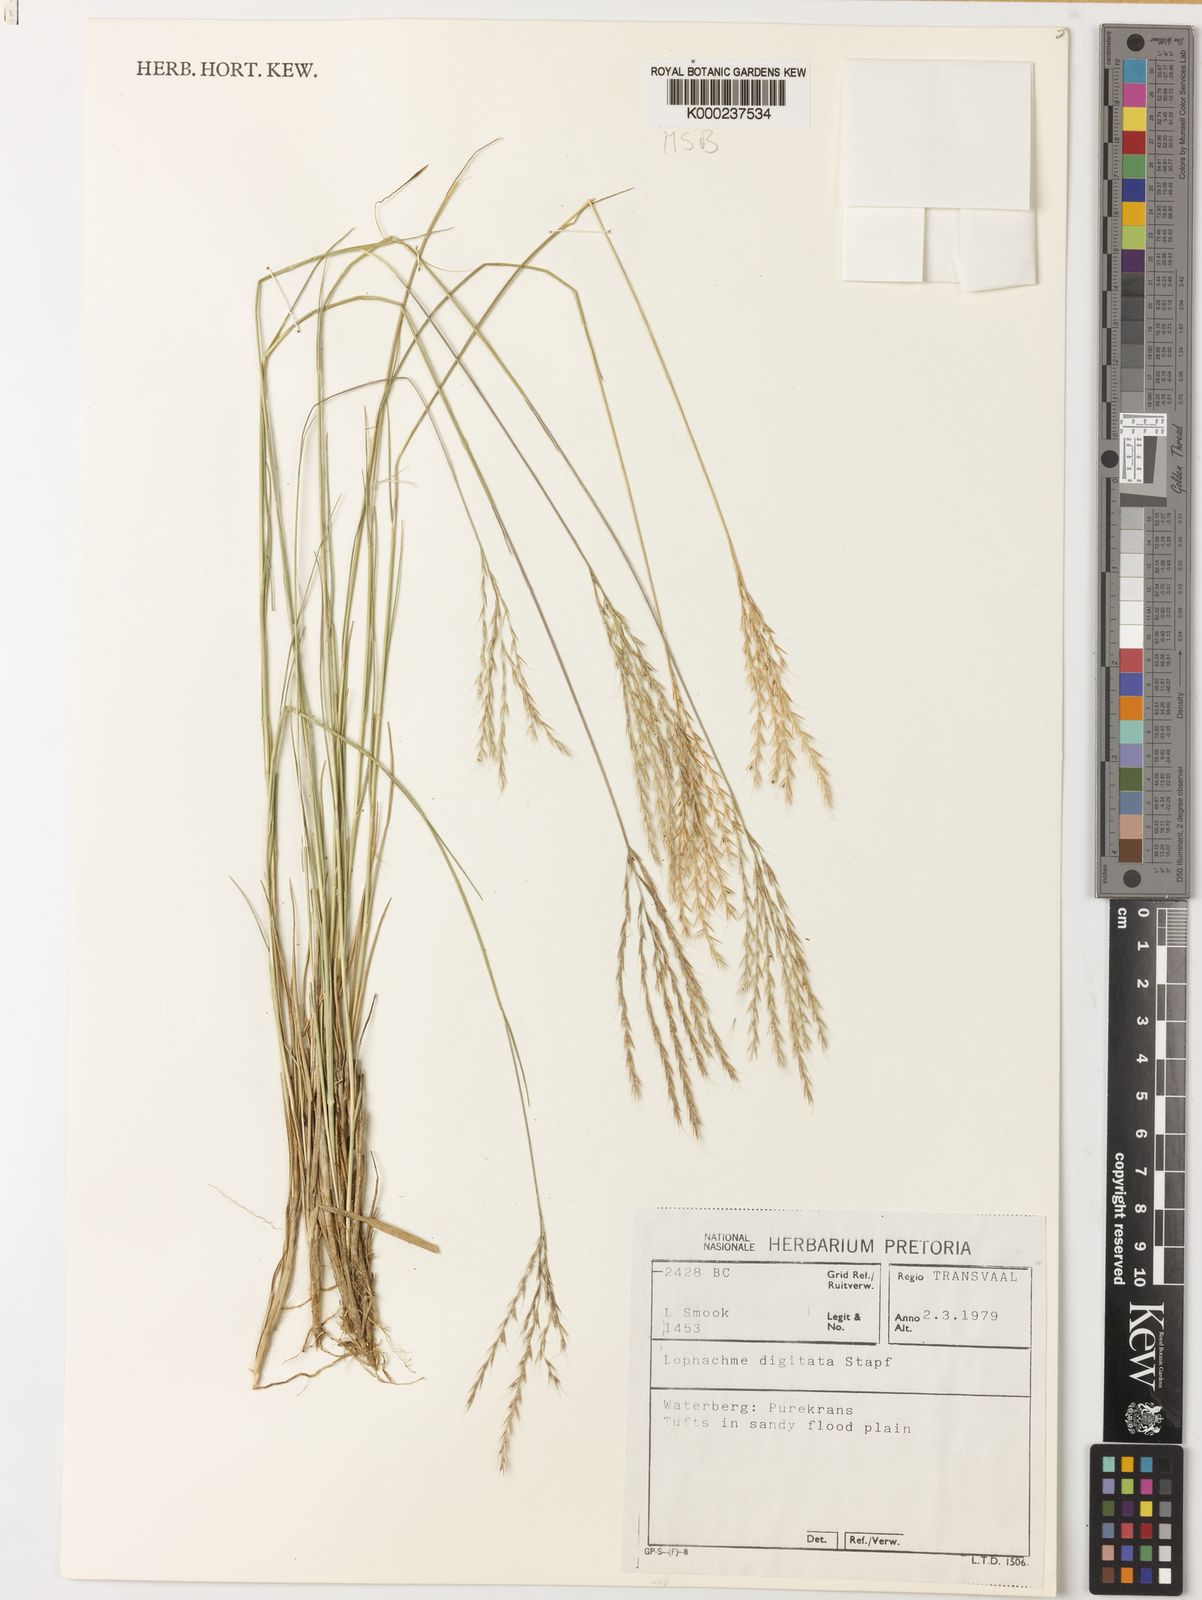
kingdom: Plantae
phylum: Tracheophyta
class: Liliopsida
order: Poales
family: Poaceae
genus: Lophacme
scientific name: Lophacme digitata
